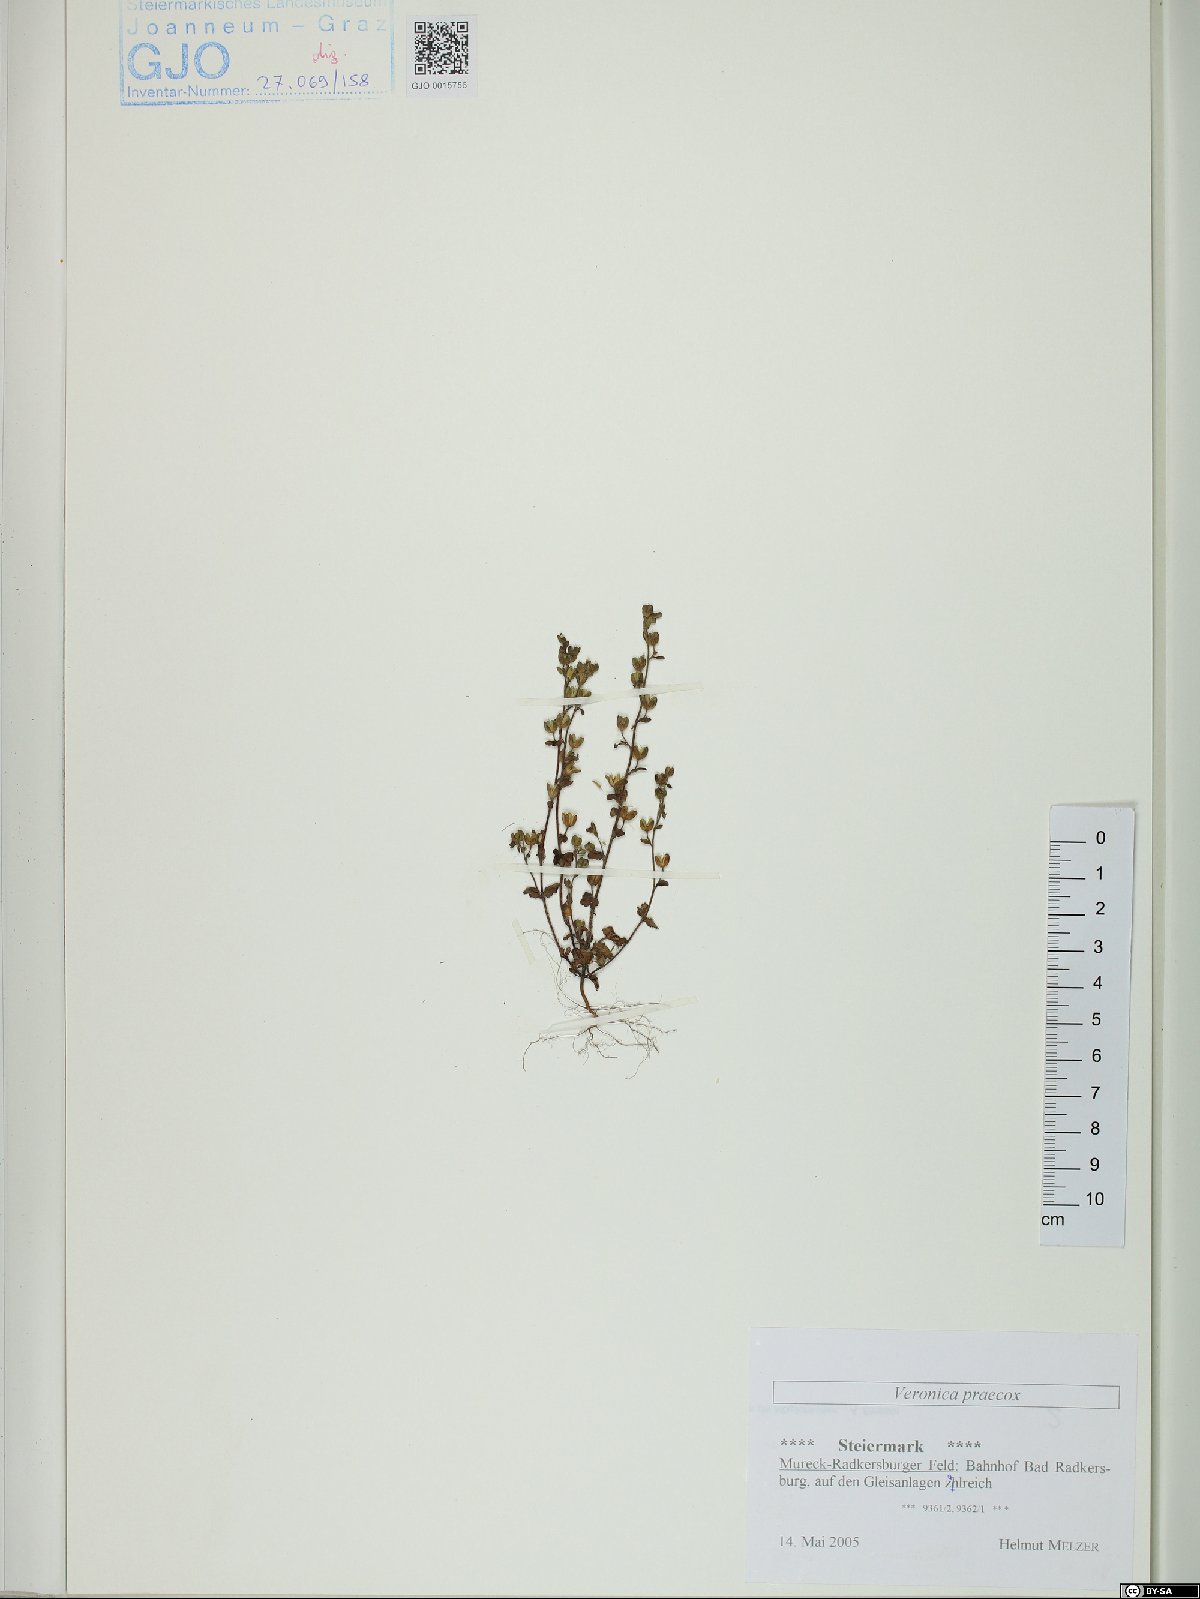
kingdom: Plantae
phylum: Tracheophyta
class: Magnoliopsida
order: Lamiales
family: Plantaginaceae
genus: Veronica
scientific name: Veronica praecox
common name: Breckland speedwell
